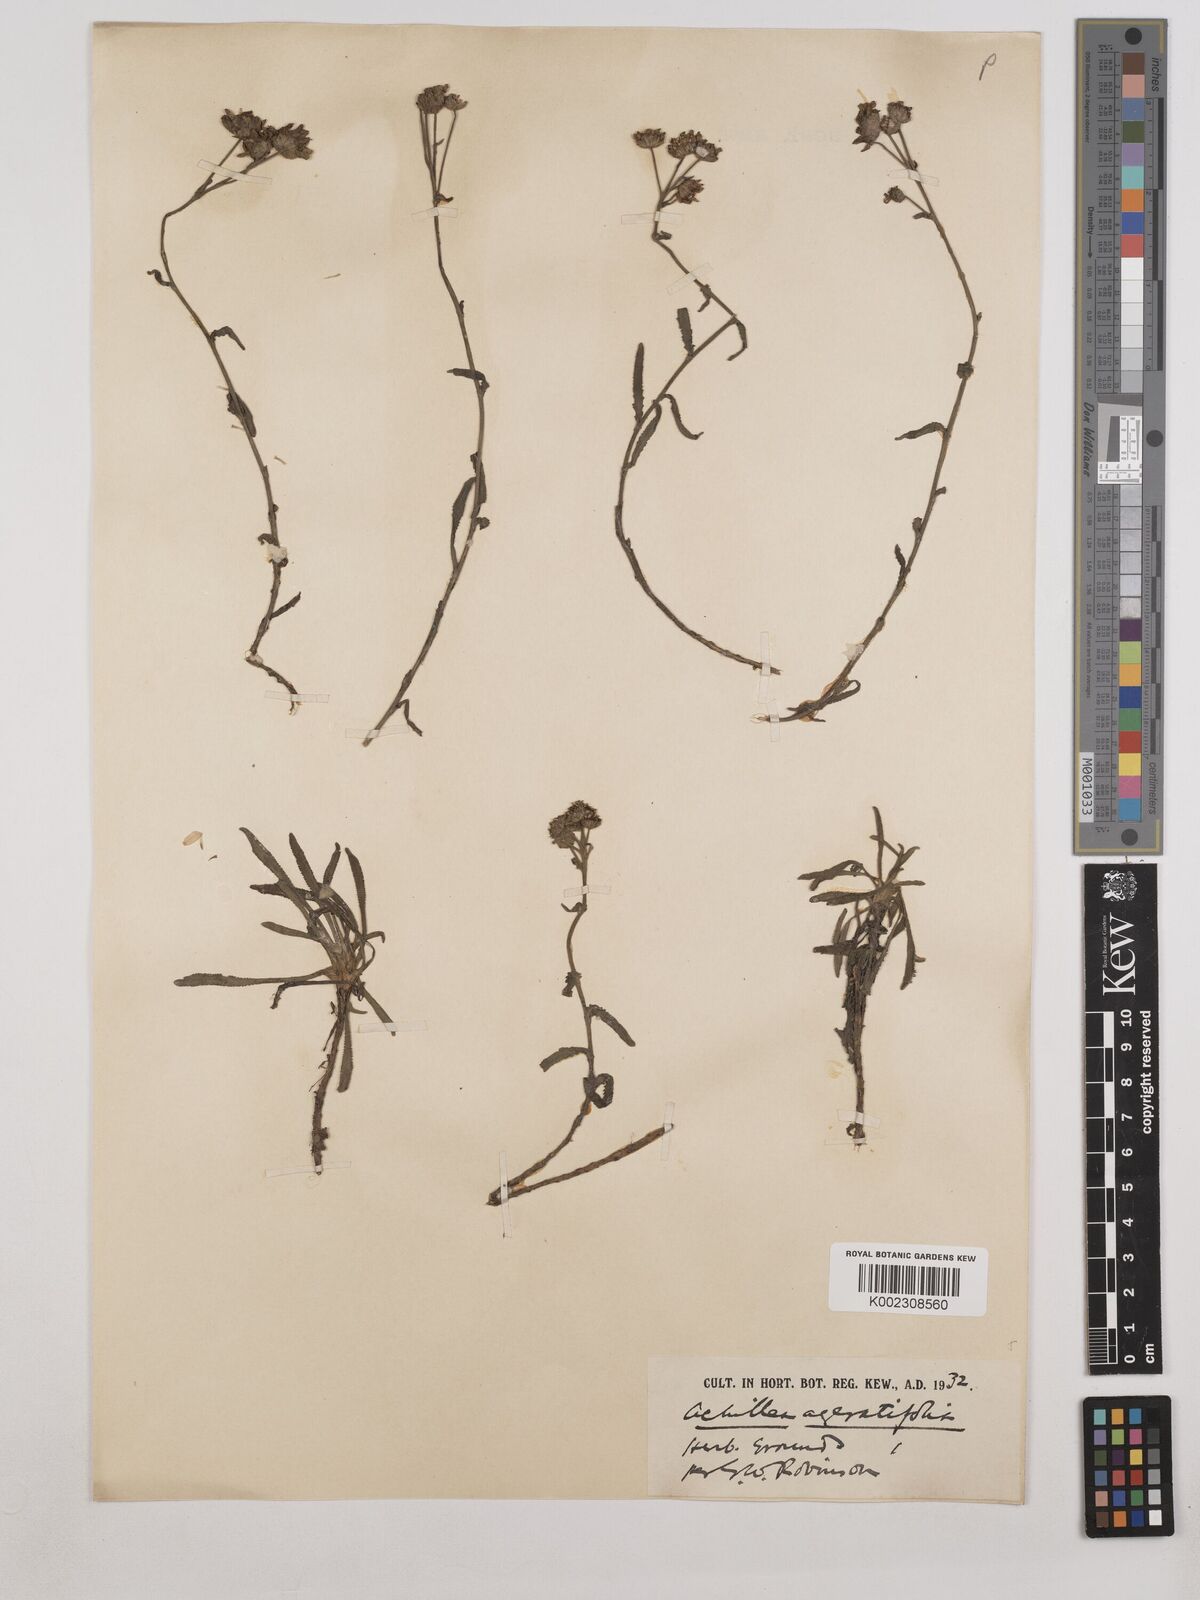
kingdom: Plantae
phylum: Tracheophyta
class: Magnoliopsida
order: Asterales
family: Asteraceae
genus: Achillea
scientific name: Achillea ageratifolia
